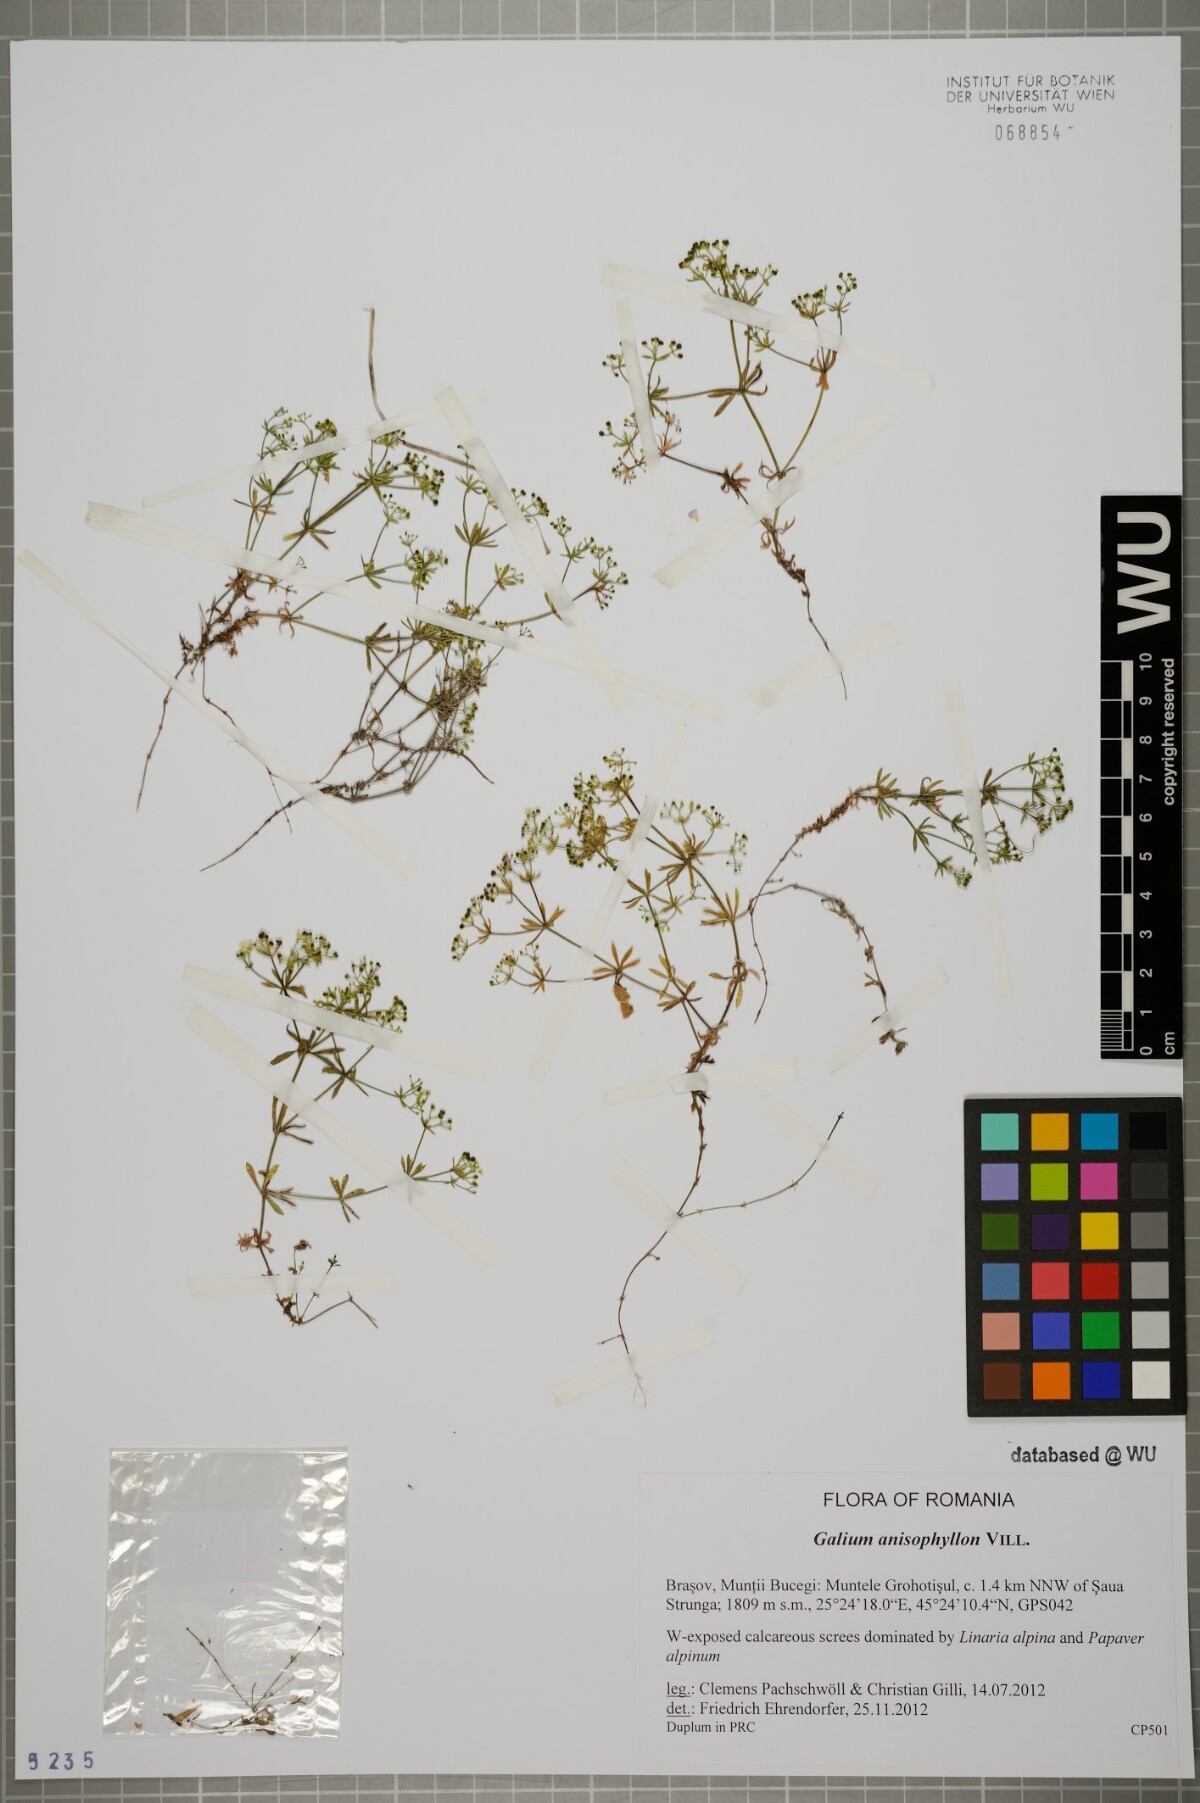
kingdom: Plantae
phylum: Tracheophyta
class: Magnoliopsida
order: Gentianales
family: Rubiaceae
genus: Galium
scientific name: Galium anisophyllon
